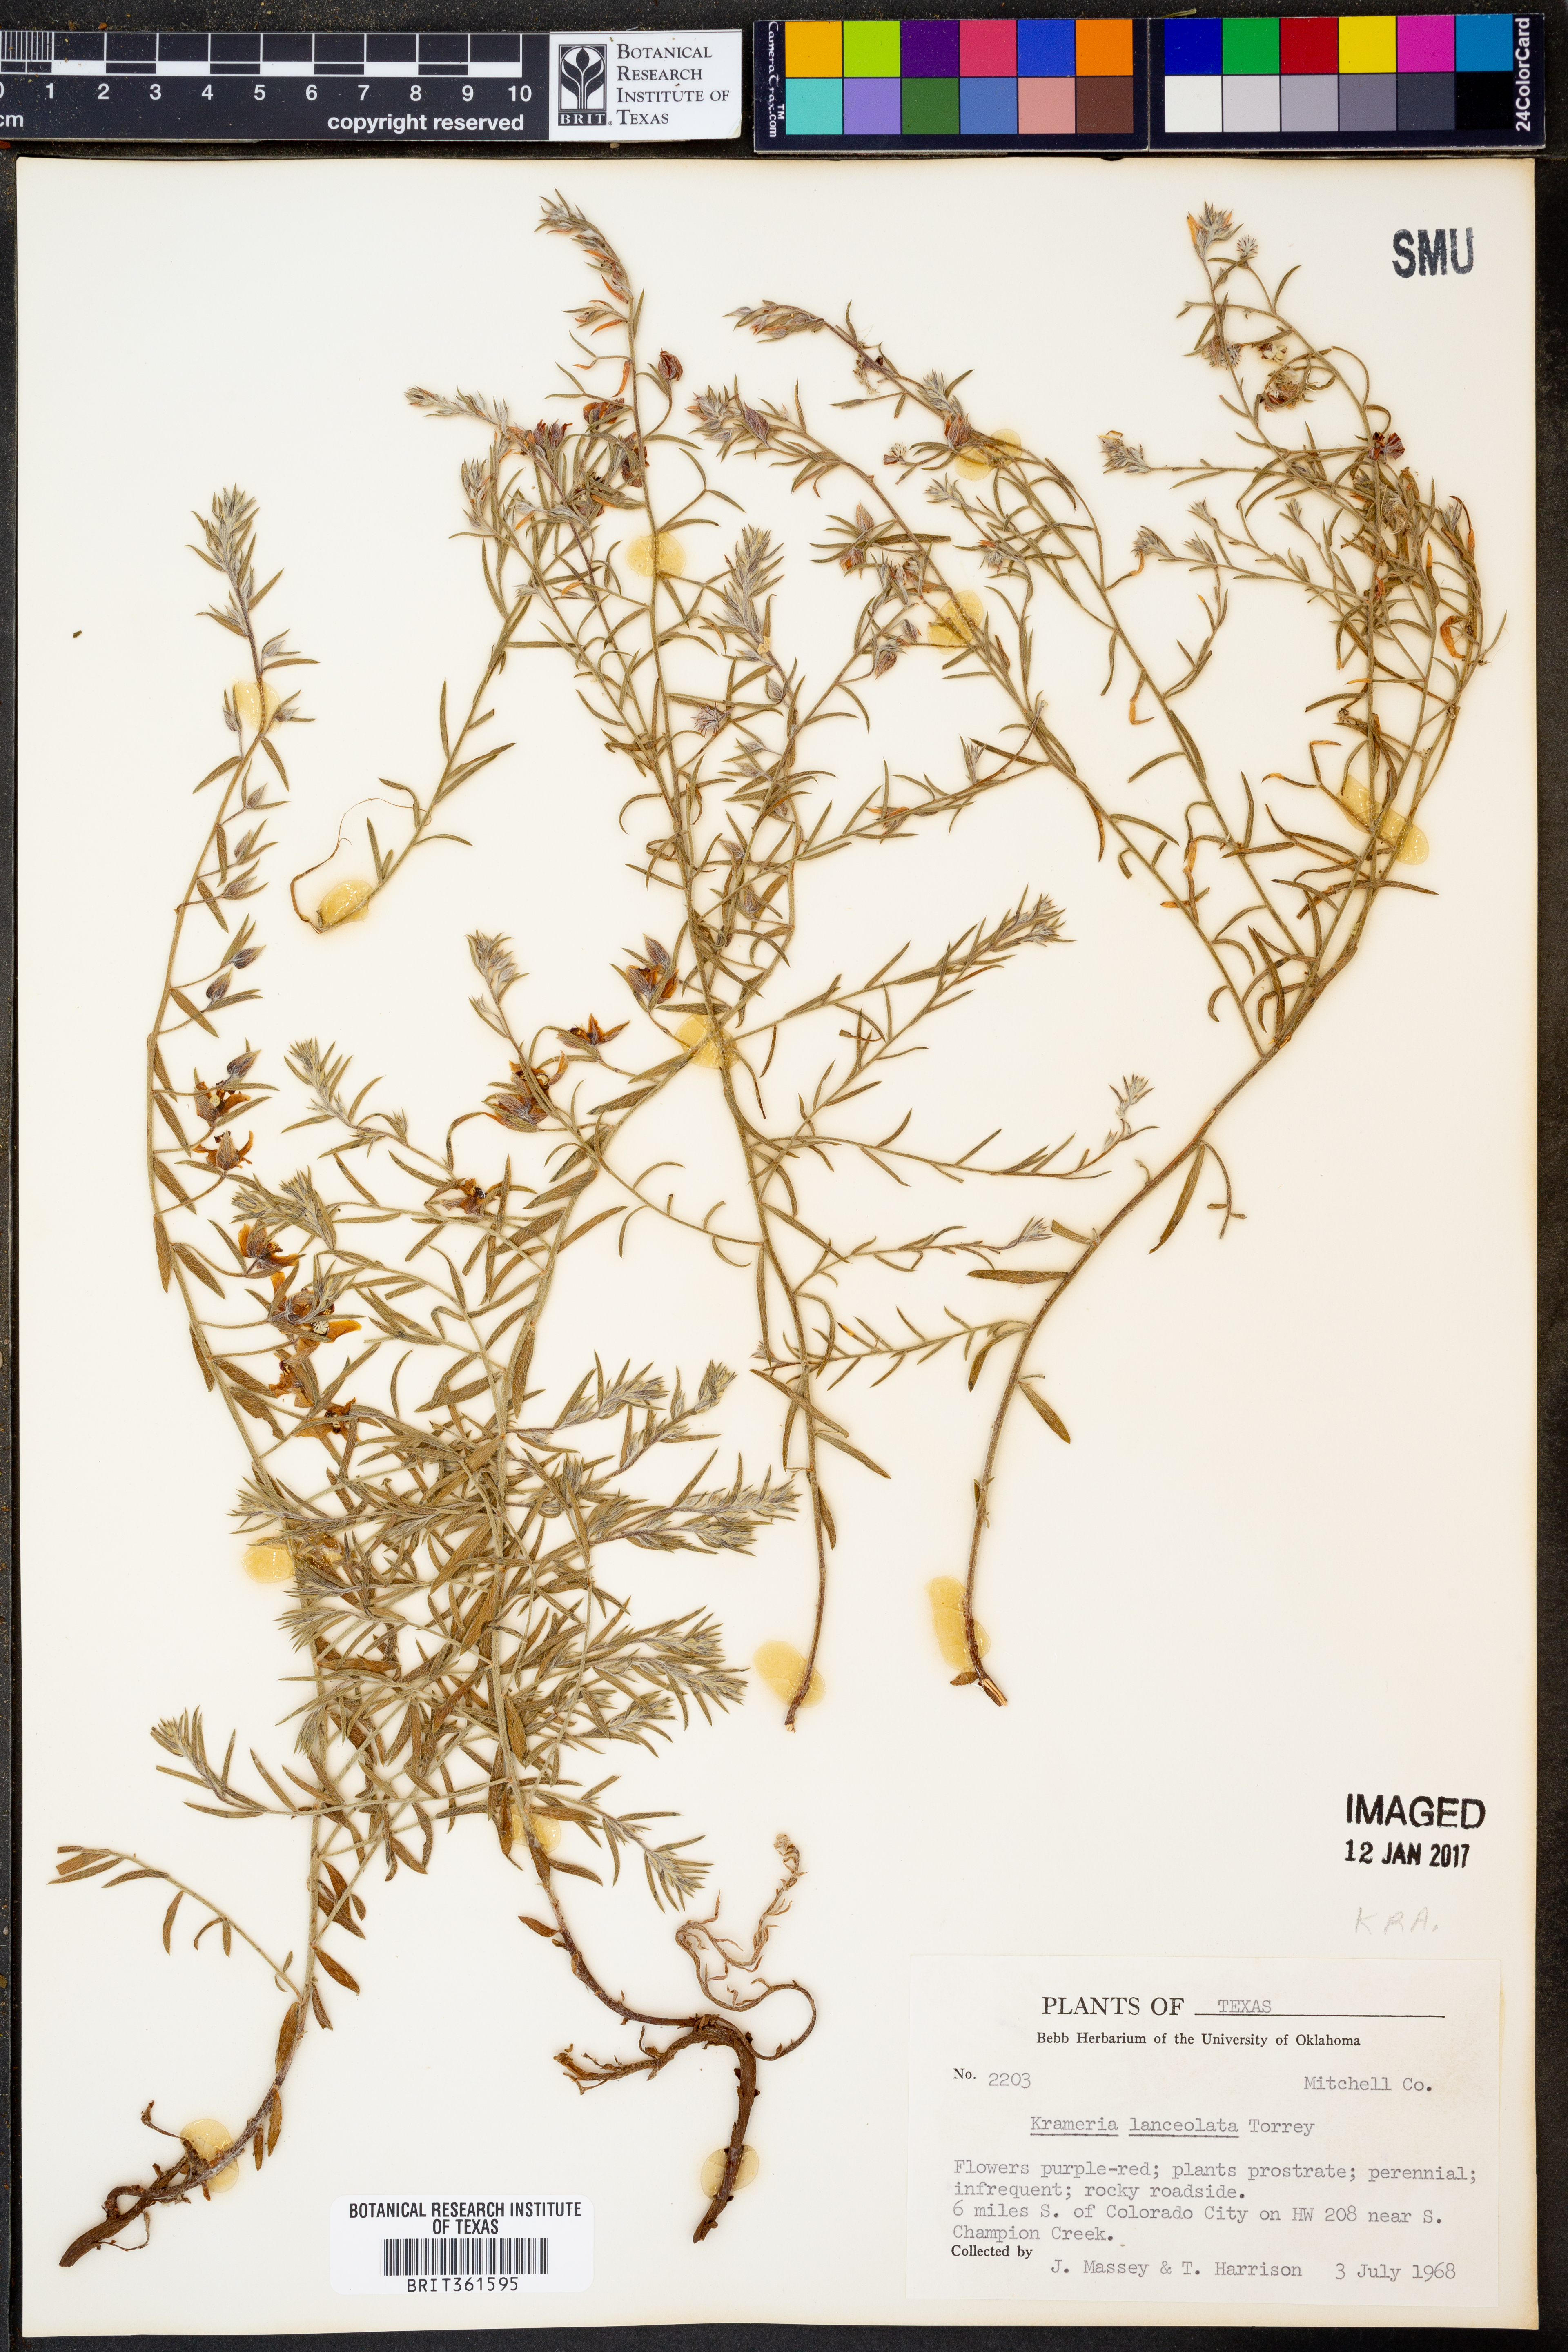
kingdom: Plantae
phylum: Tracheophyta
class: Magnoliopsida
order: Zygophyllales
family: Krameriaceae
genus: Krameria
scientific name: Krameria lanceolata
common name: Ratany
